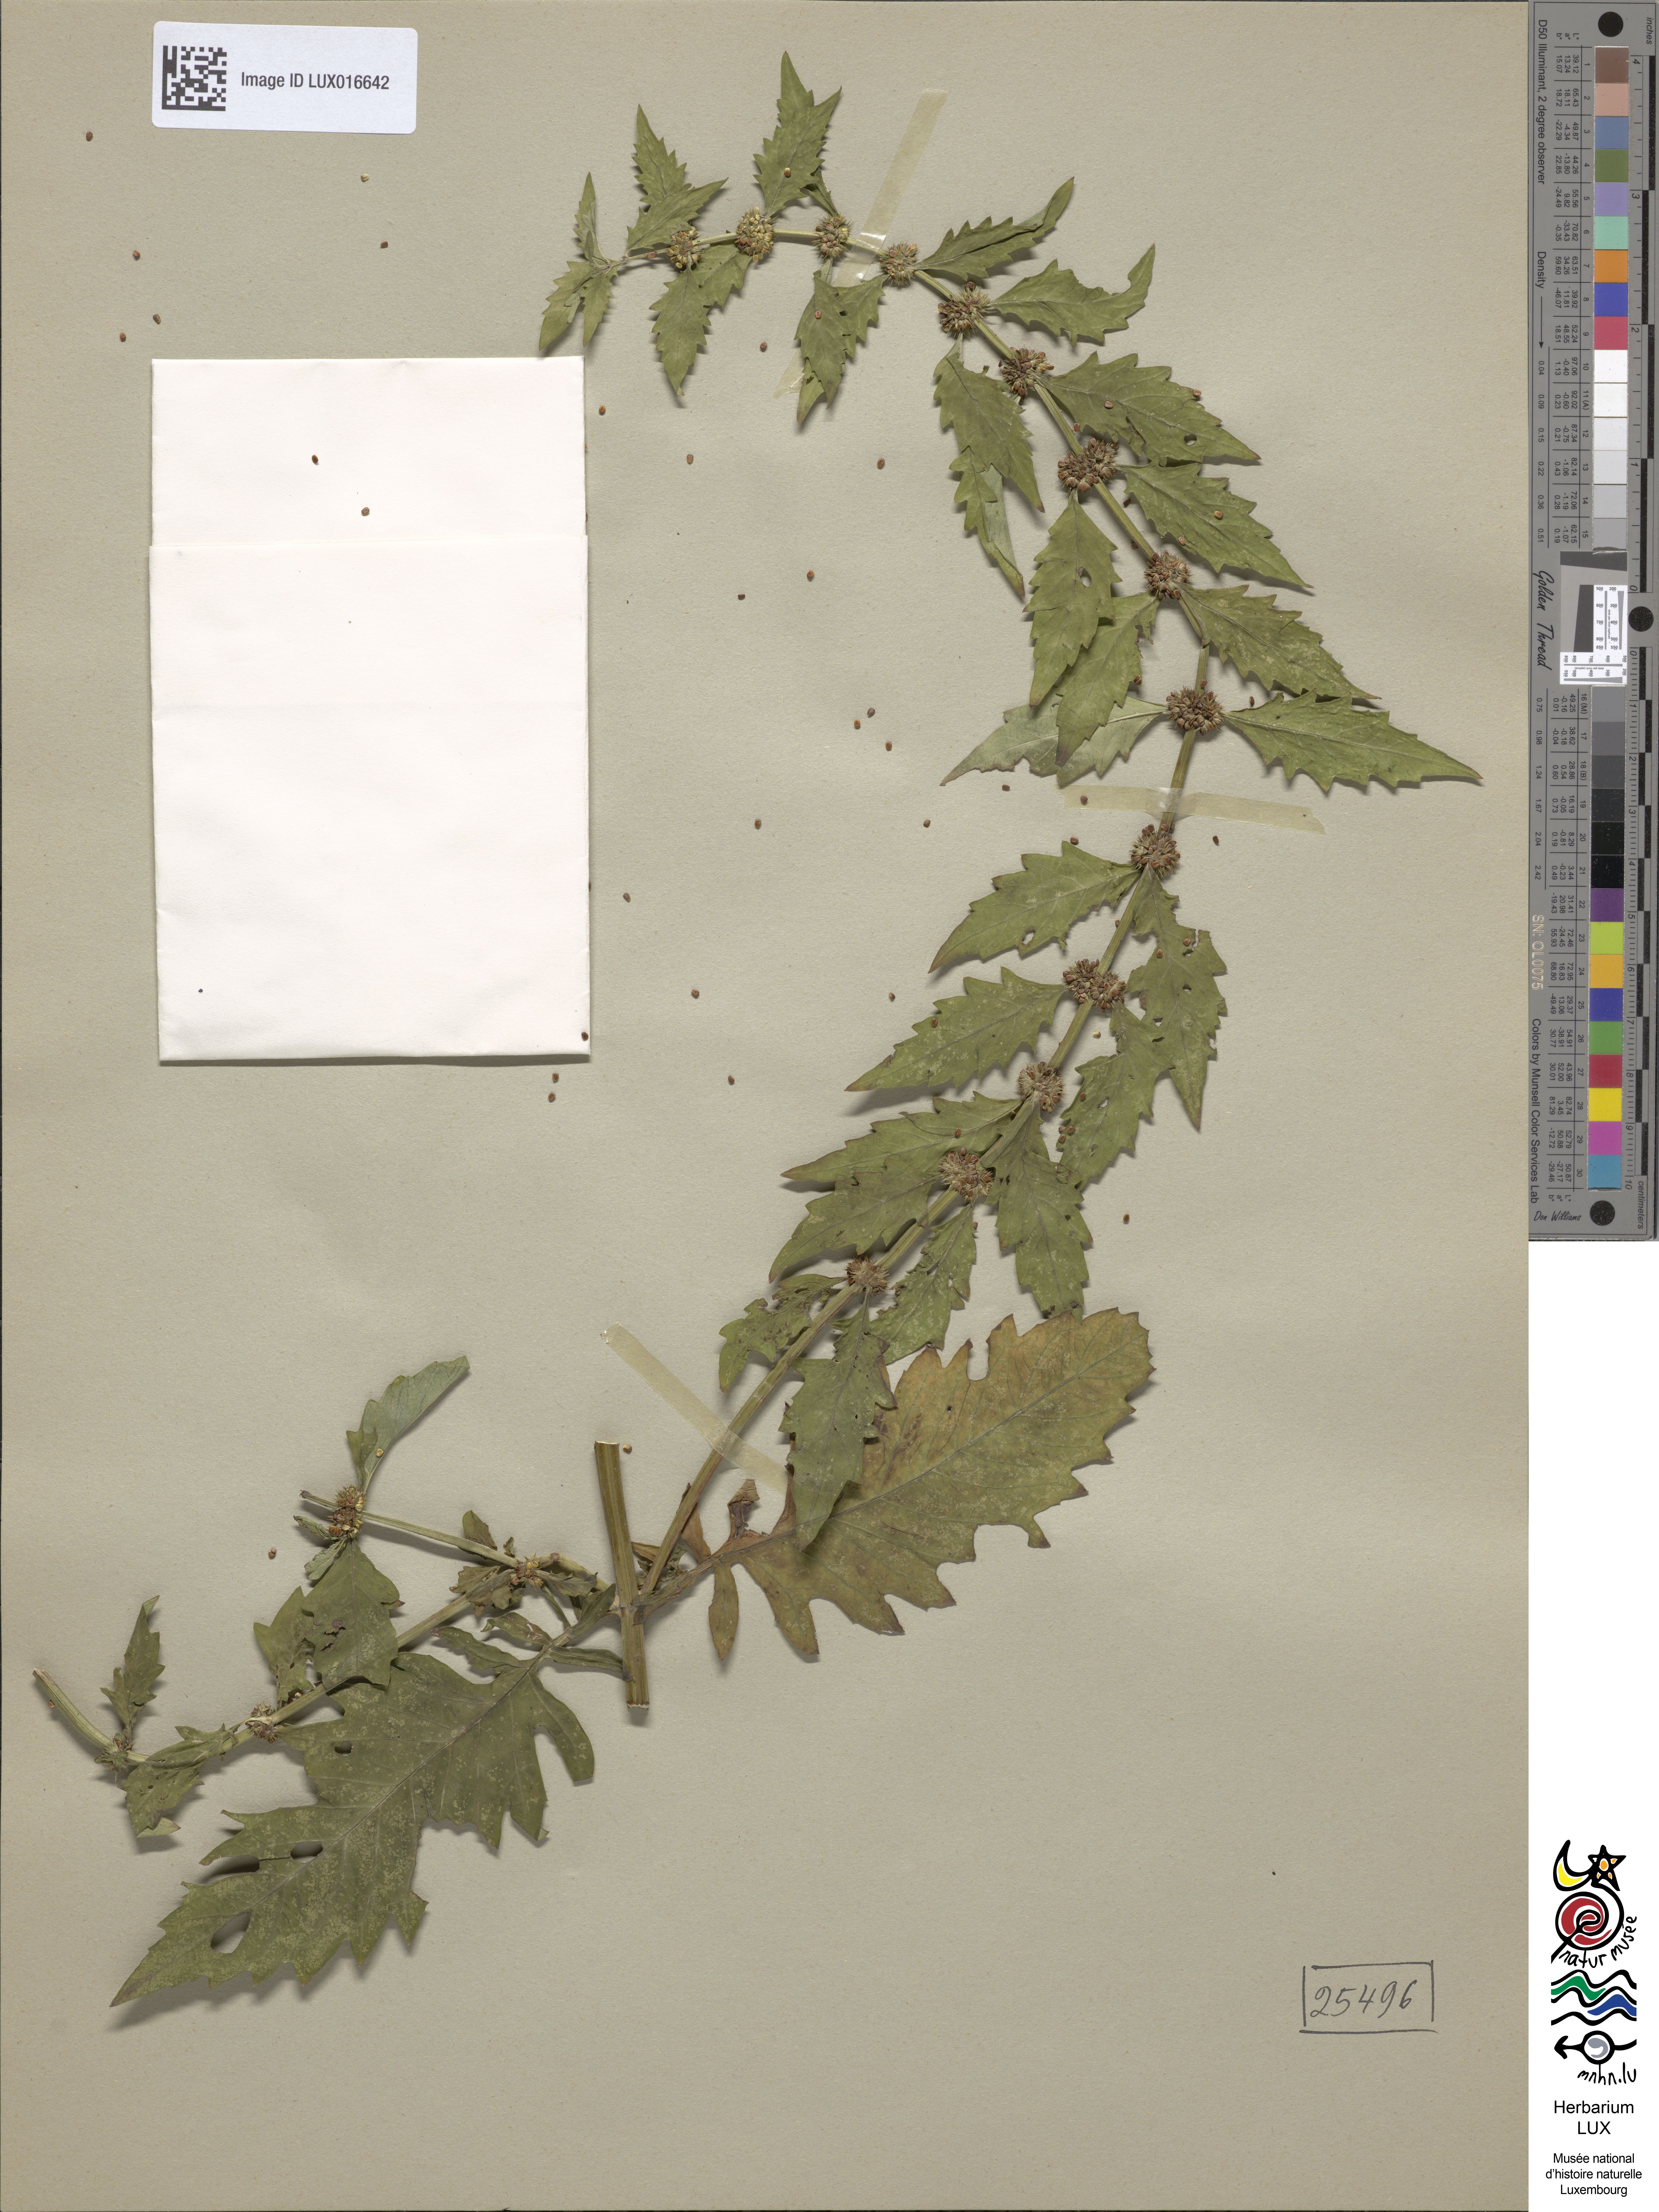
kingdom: Plantae
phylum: Tracheophyta
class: Magnoliopsida
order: Lamiales
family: Lamiaceae
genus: Lycopus
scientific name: Lycopus europaeus
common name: European bugleweed
